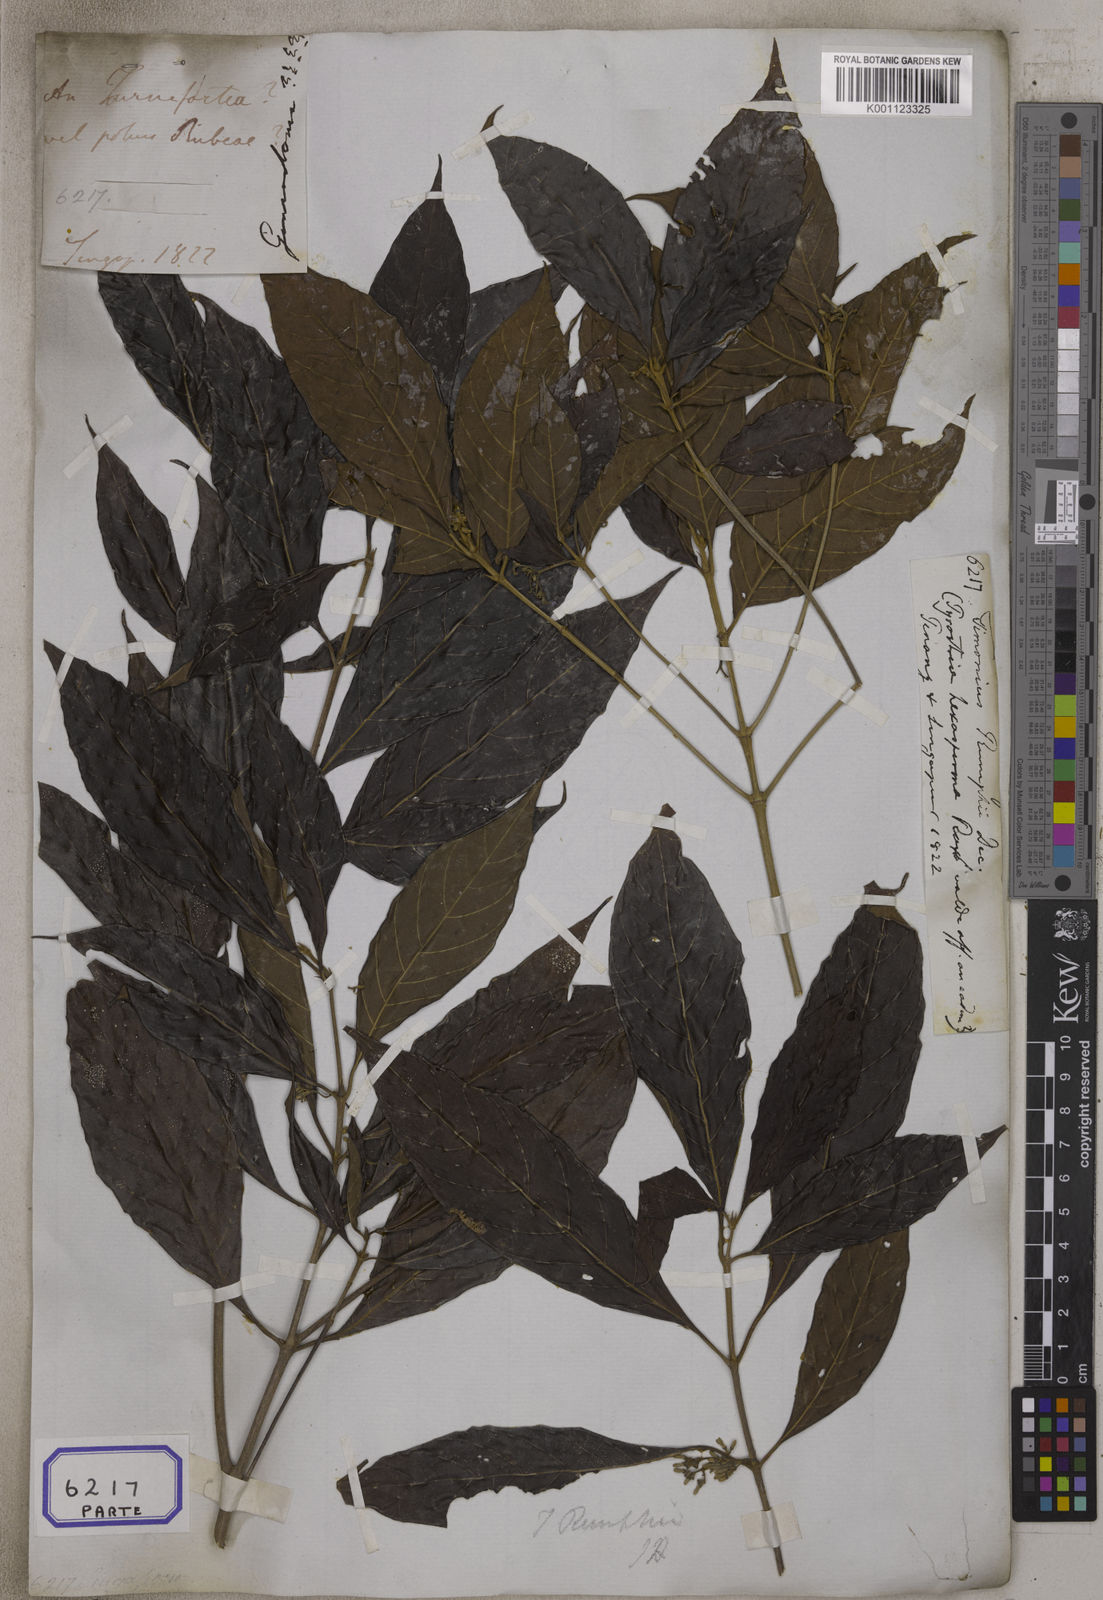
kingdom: Plantae
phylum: Tracheophyta
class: Magnoliopsida
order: Gentianales
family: Rubiaceae
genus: Timonius
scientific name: Timonius timon
